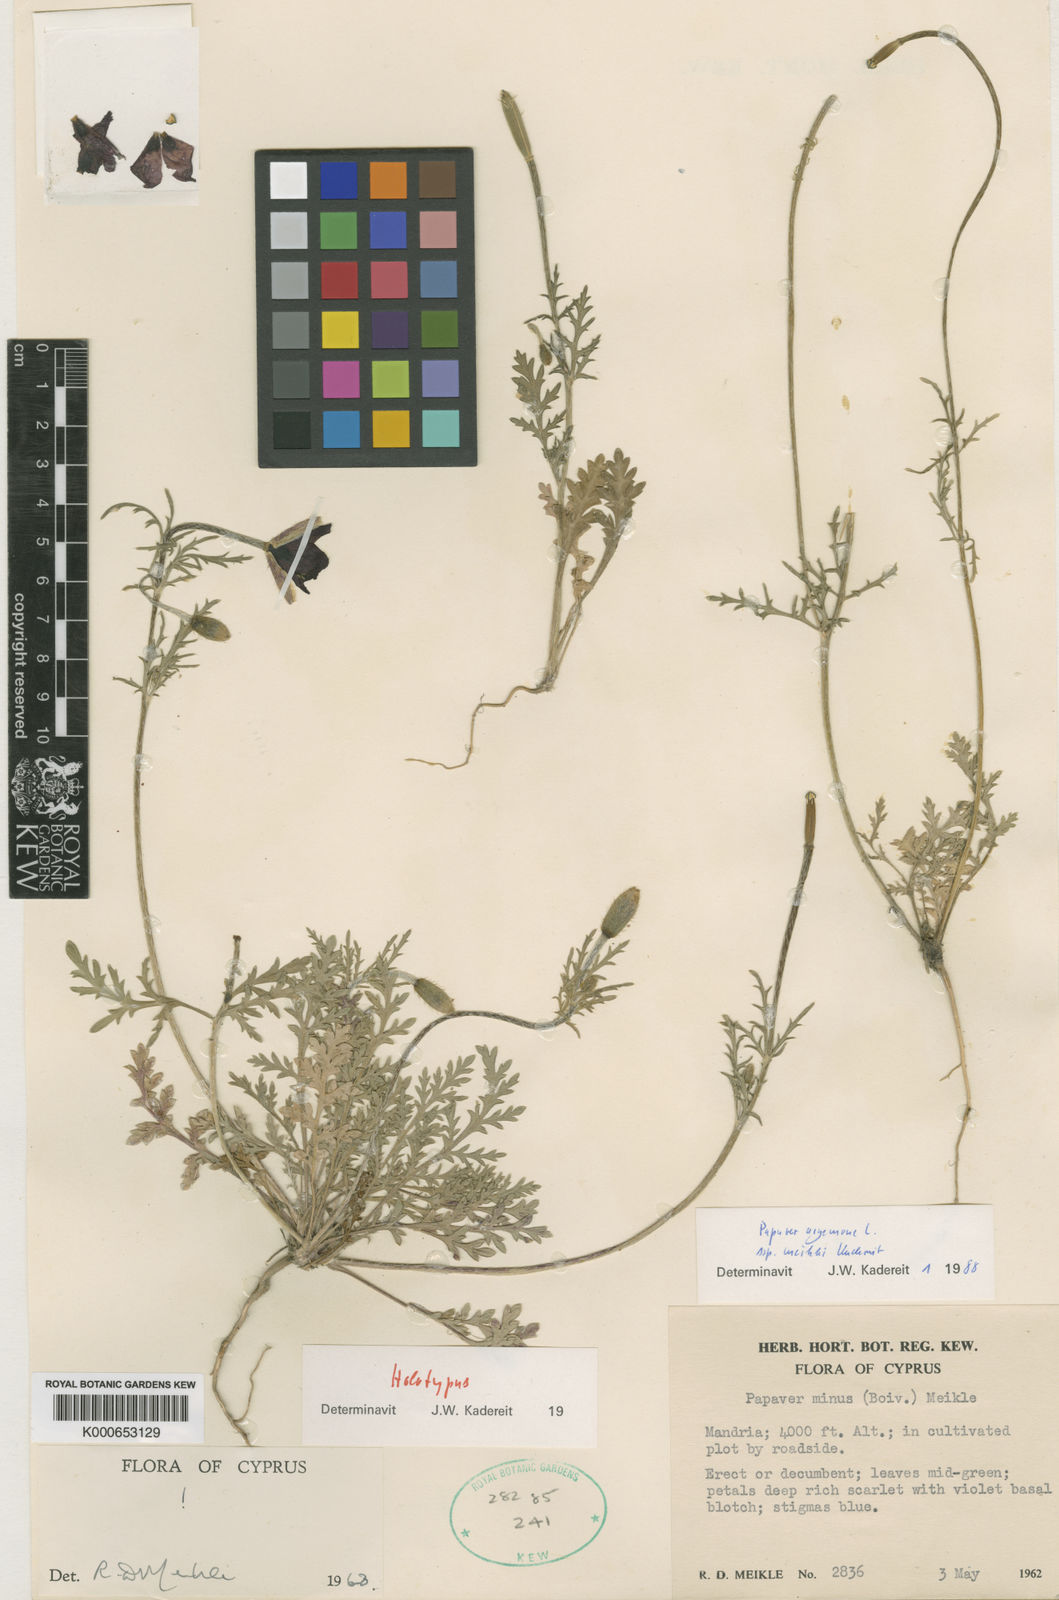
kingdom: Plantae
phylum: Tracheophyta
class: Magnoliopsida
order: Ranunculales
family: Papaveraceae
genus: Roemeria
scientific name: Roemeria argemone
